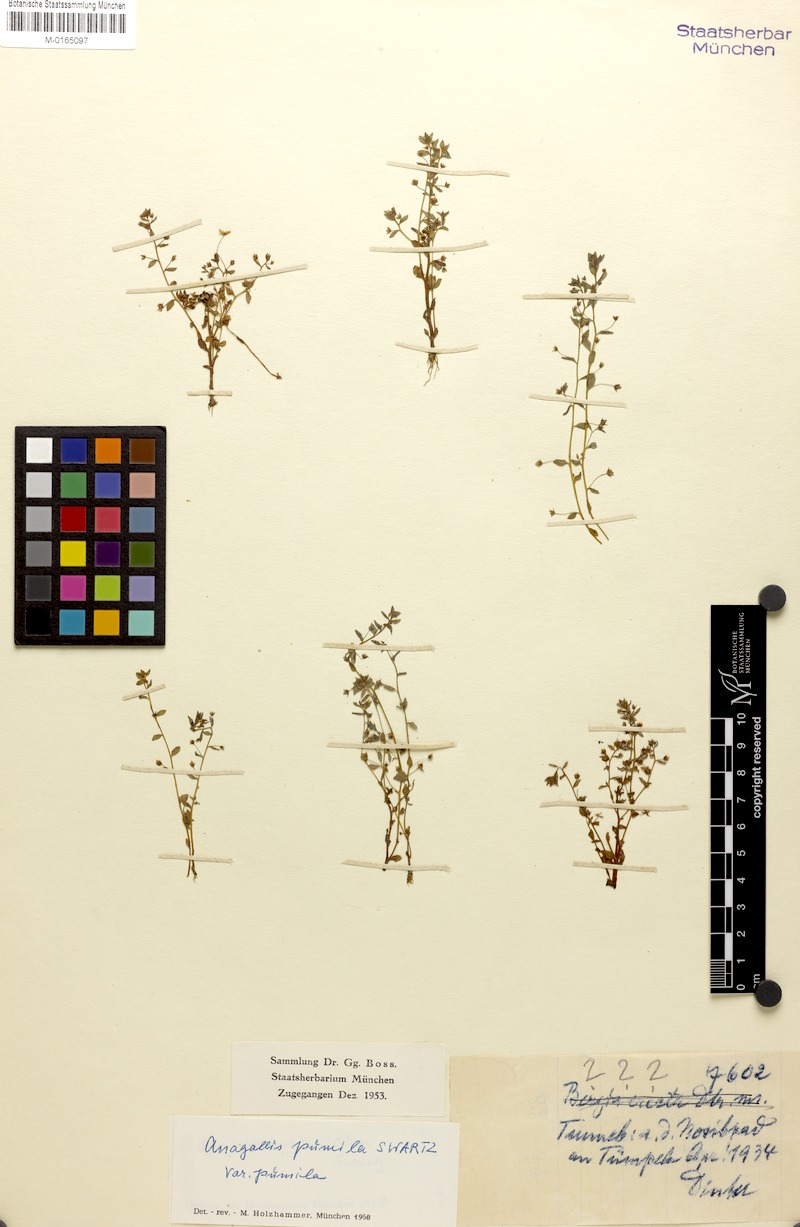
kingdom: Plantae
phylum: Tracheophyta
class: Magnoliopsida
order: Ericales
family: Primulaceae
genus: Lysimachia
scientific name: Lysimachia ovalis
